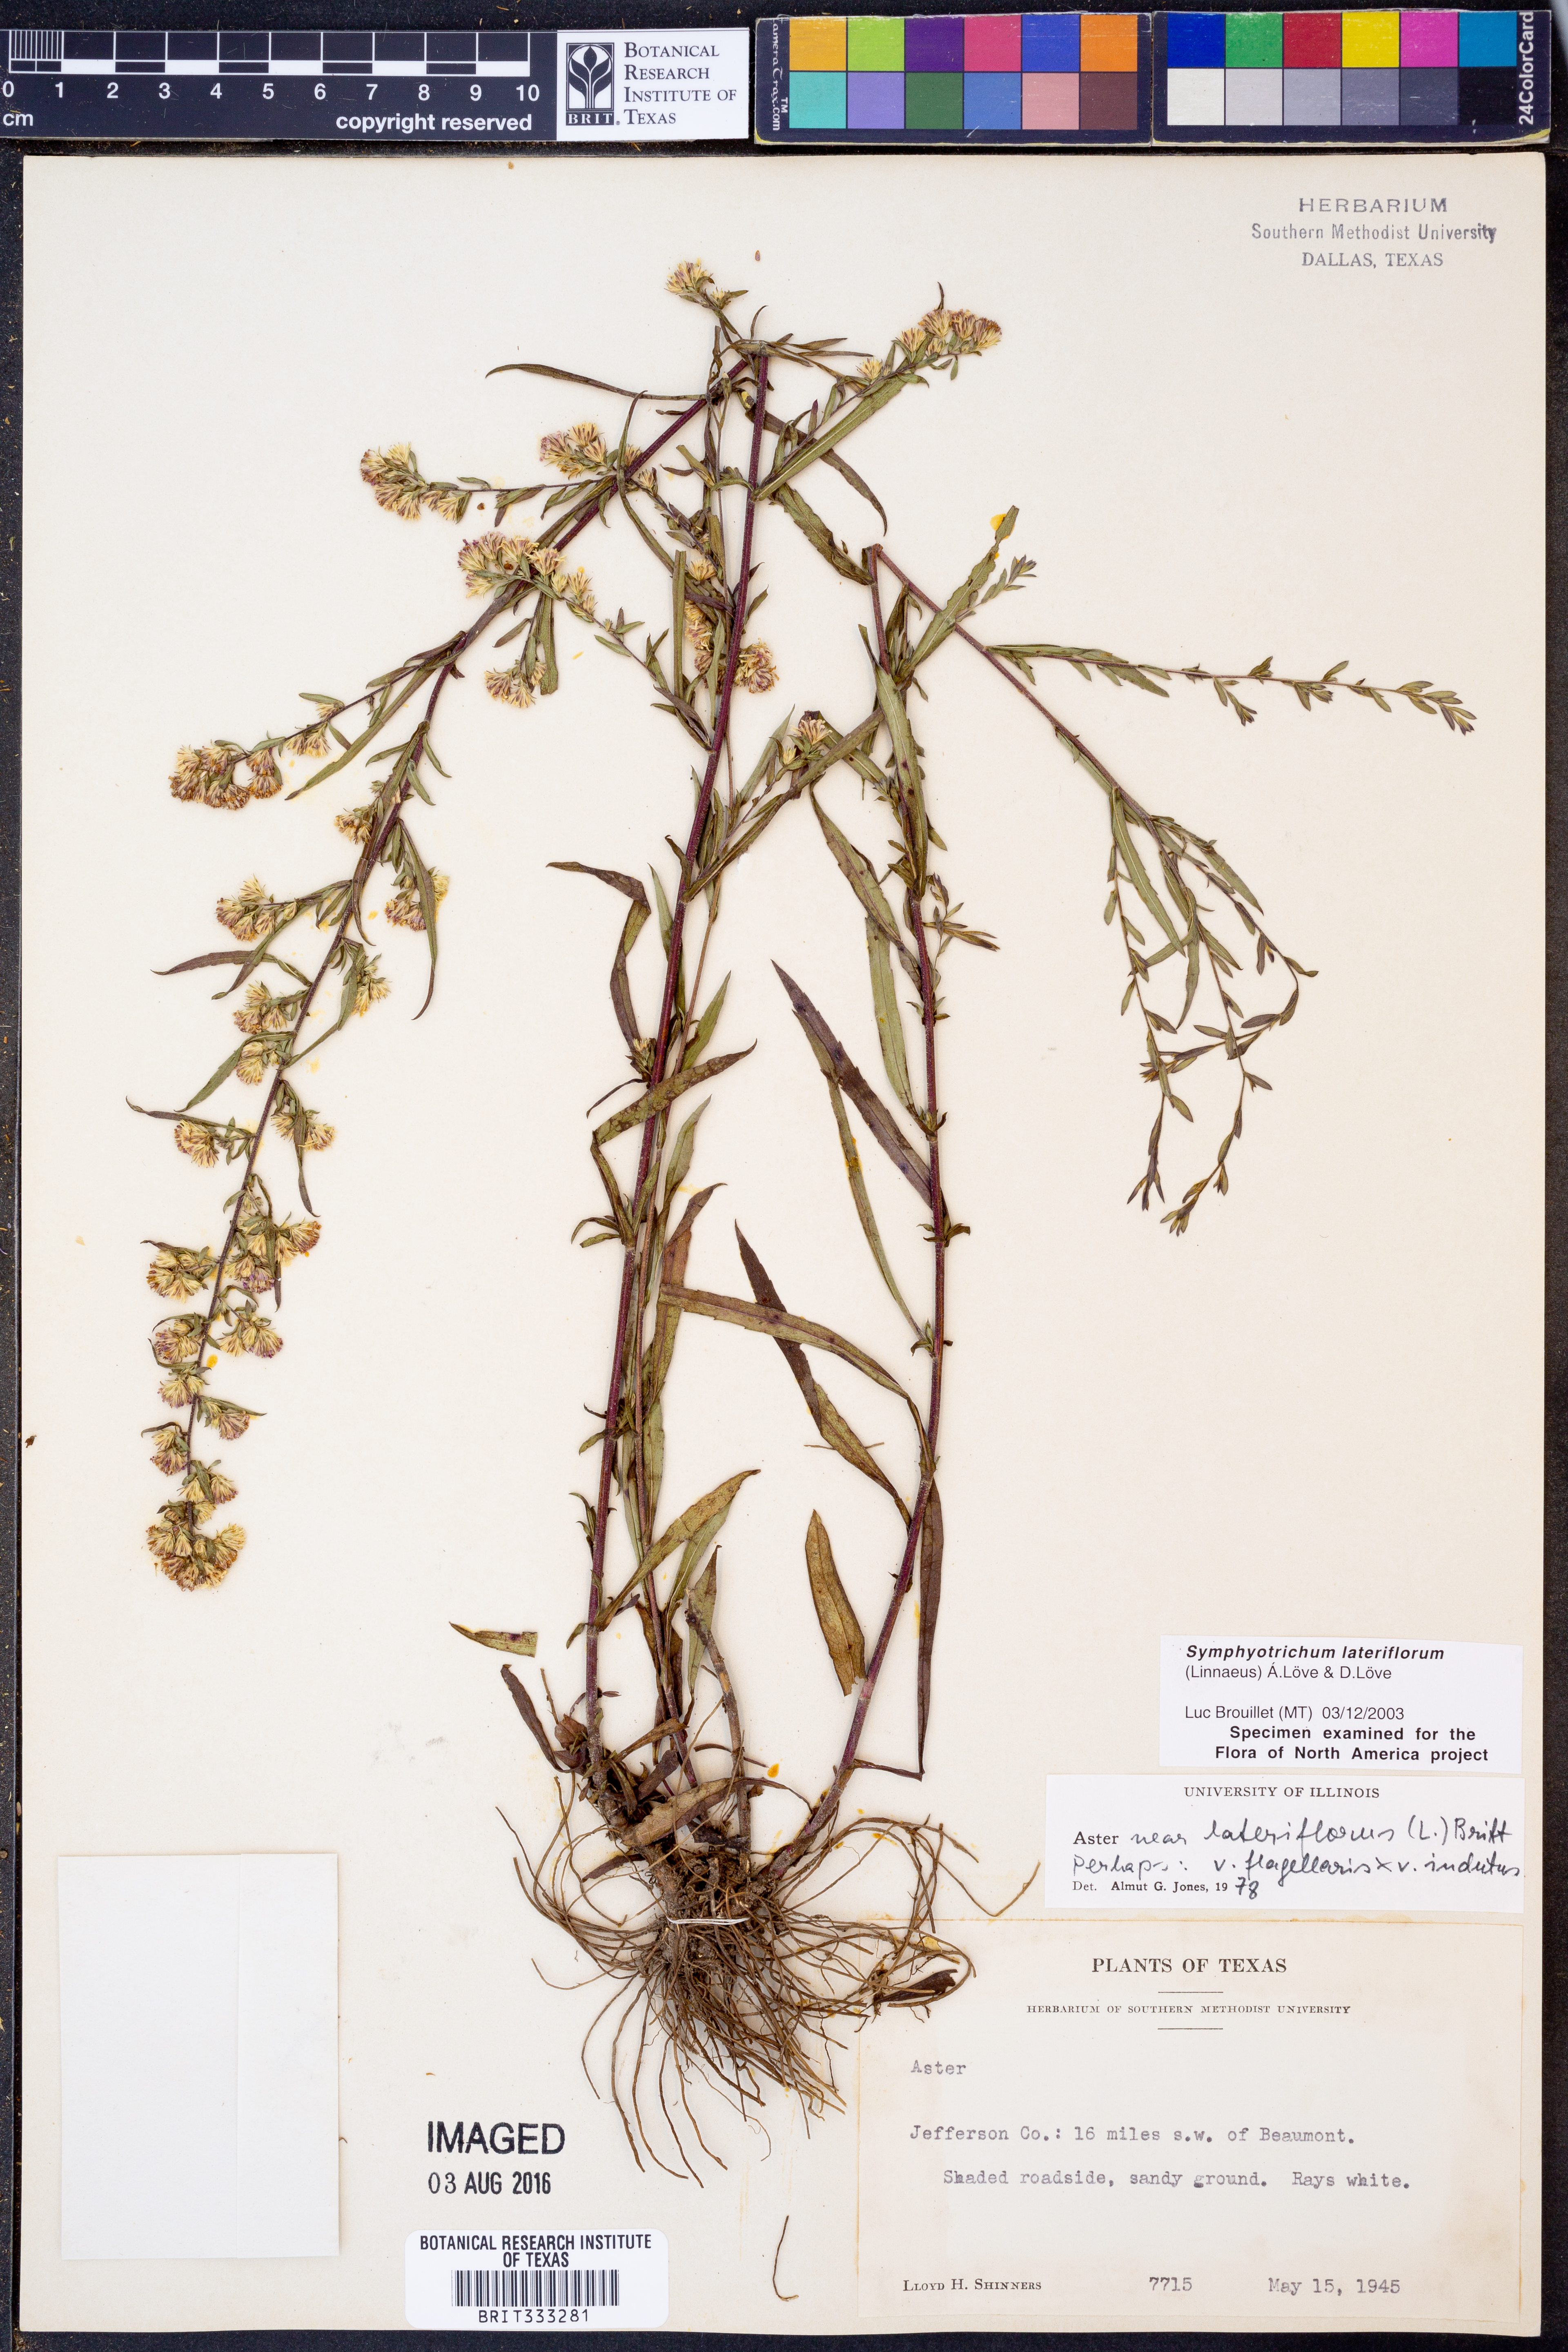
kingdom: Plantae
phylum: Tracheophyta
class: Magnoliopsida
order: Asterales
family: Asteraceae
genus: Symphyotrichum
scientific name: Symphyotrichum lateriflorum
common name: Calico aster
